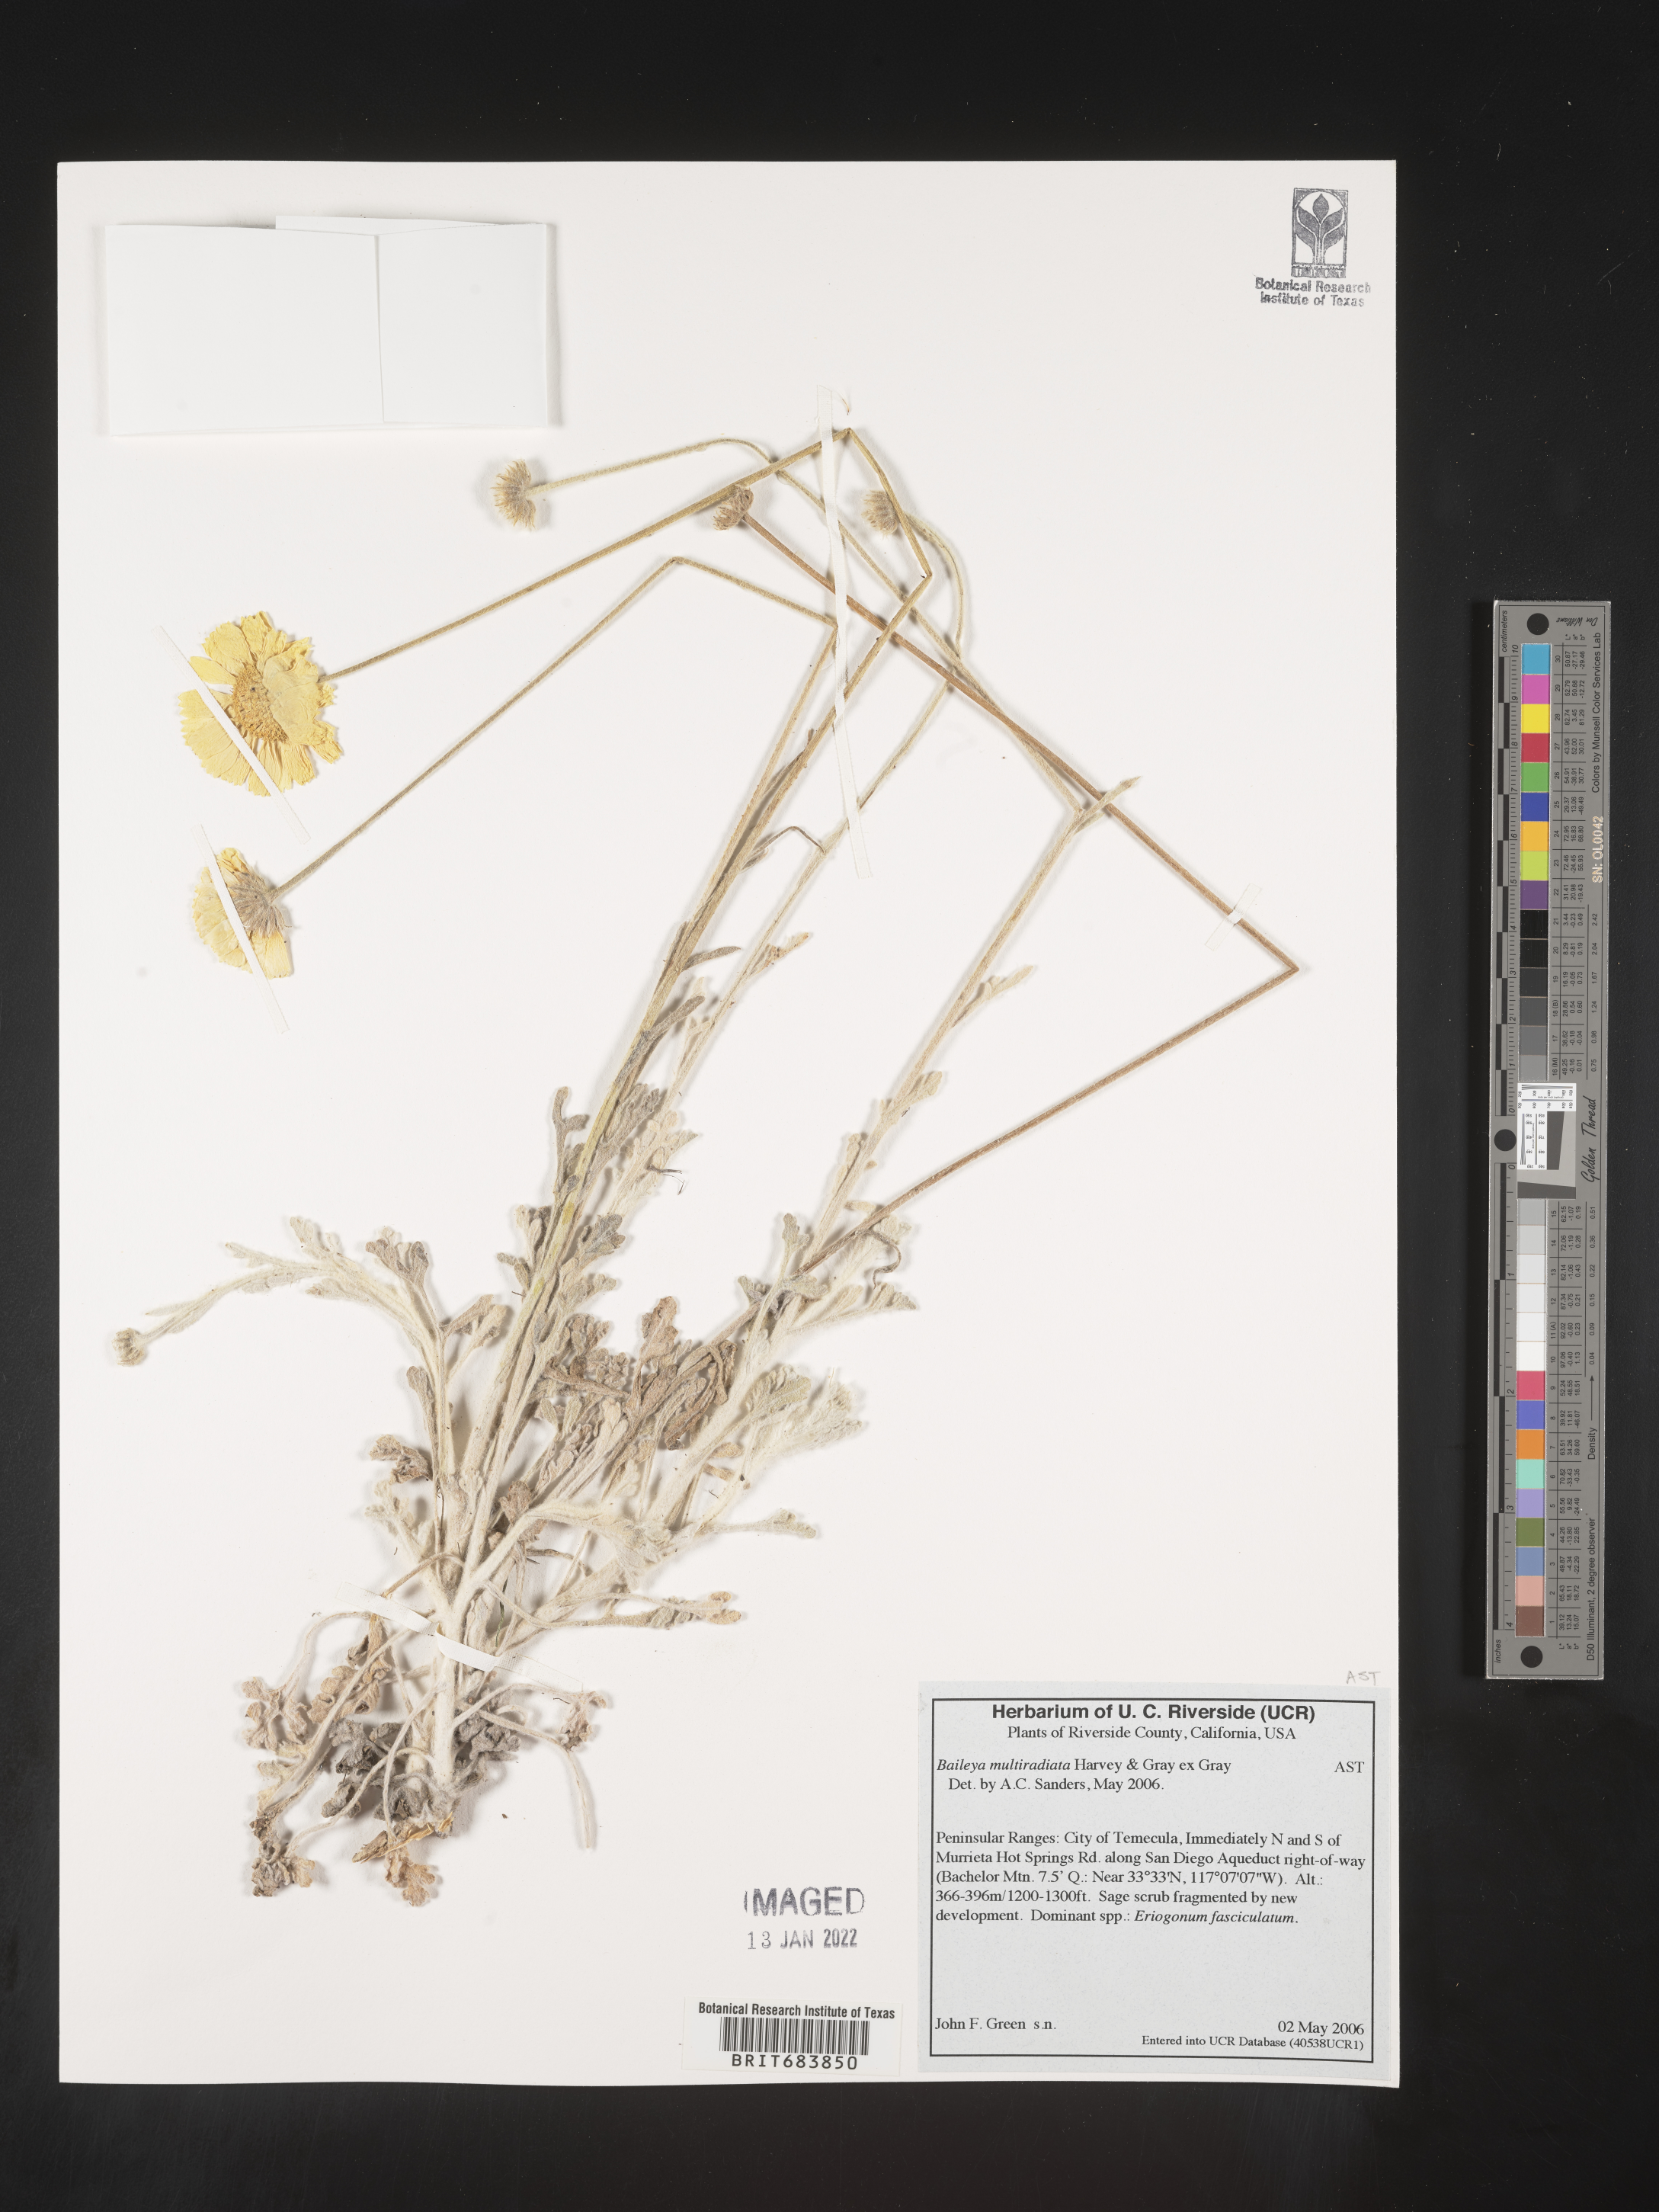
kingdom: Plantae
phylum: Tracheophyta
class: Magnoliopsida
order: Asterales
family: Asteraceae
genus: Baileya
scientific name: Baileya multiradiata
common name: Desert-marigold
